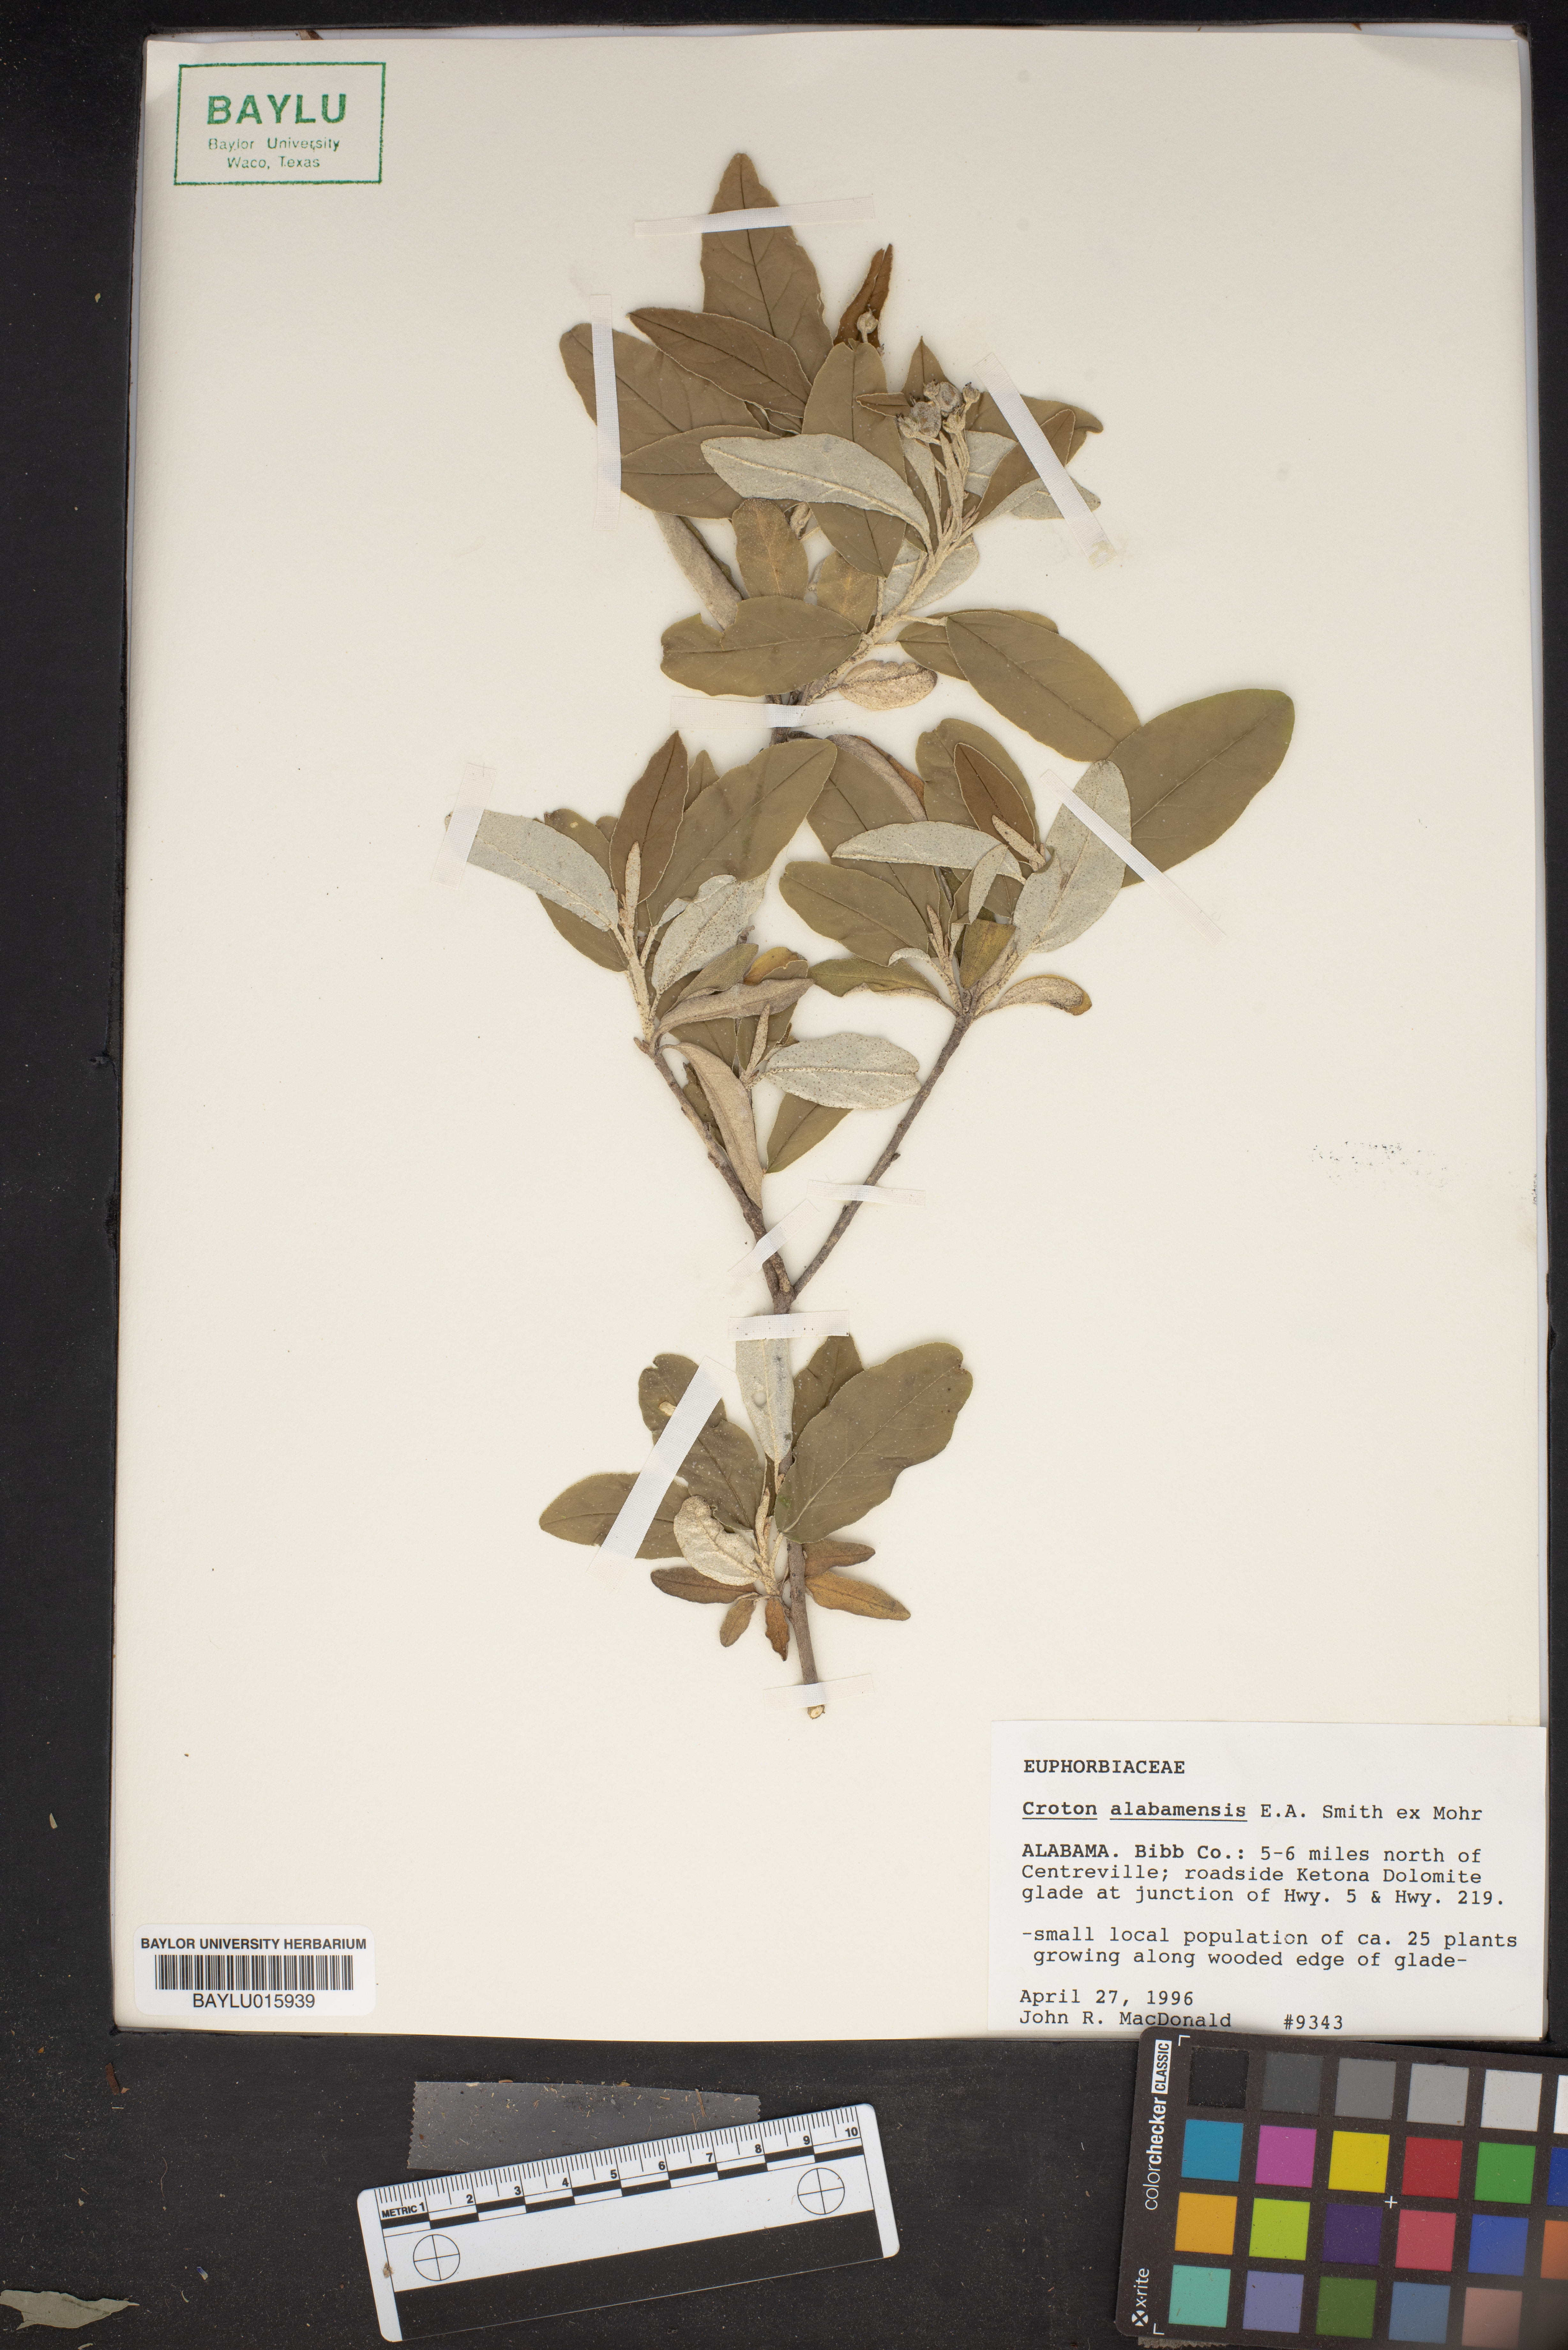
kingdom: Plantae
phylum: Tracheophyta
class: Magnoliopsida
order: Malpighiales
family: Euphorbiaceae
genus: Croton
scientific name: Croton alabamensis
